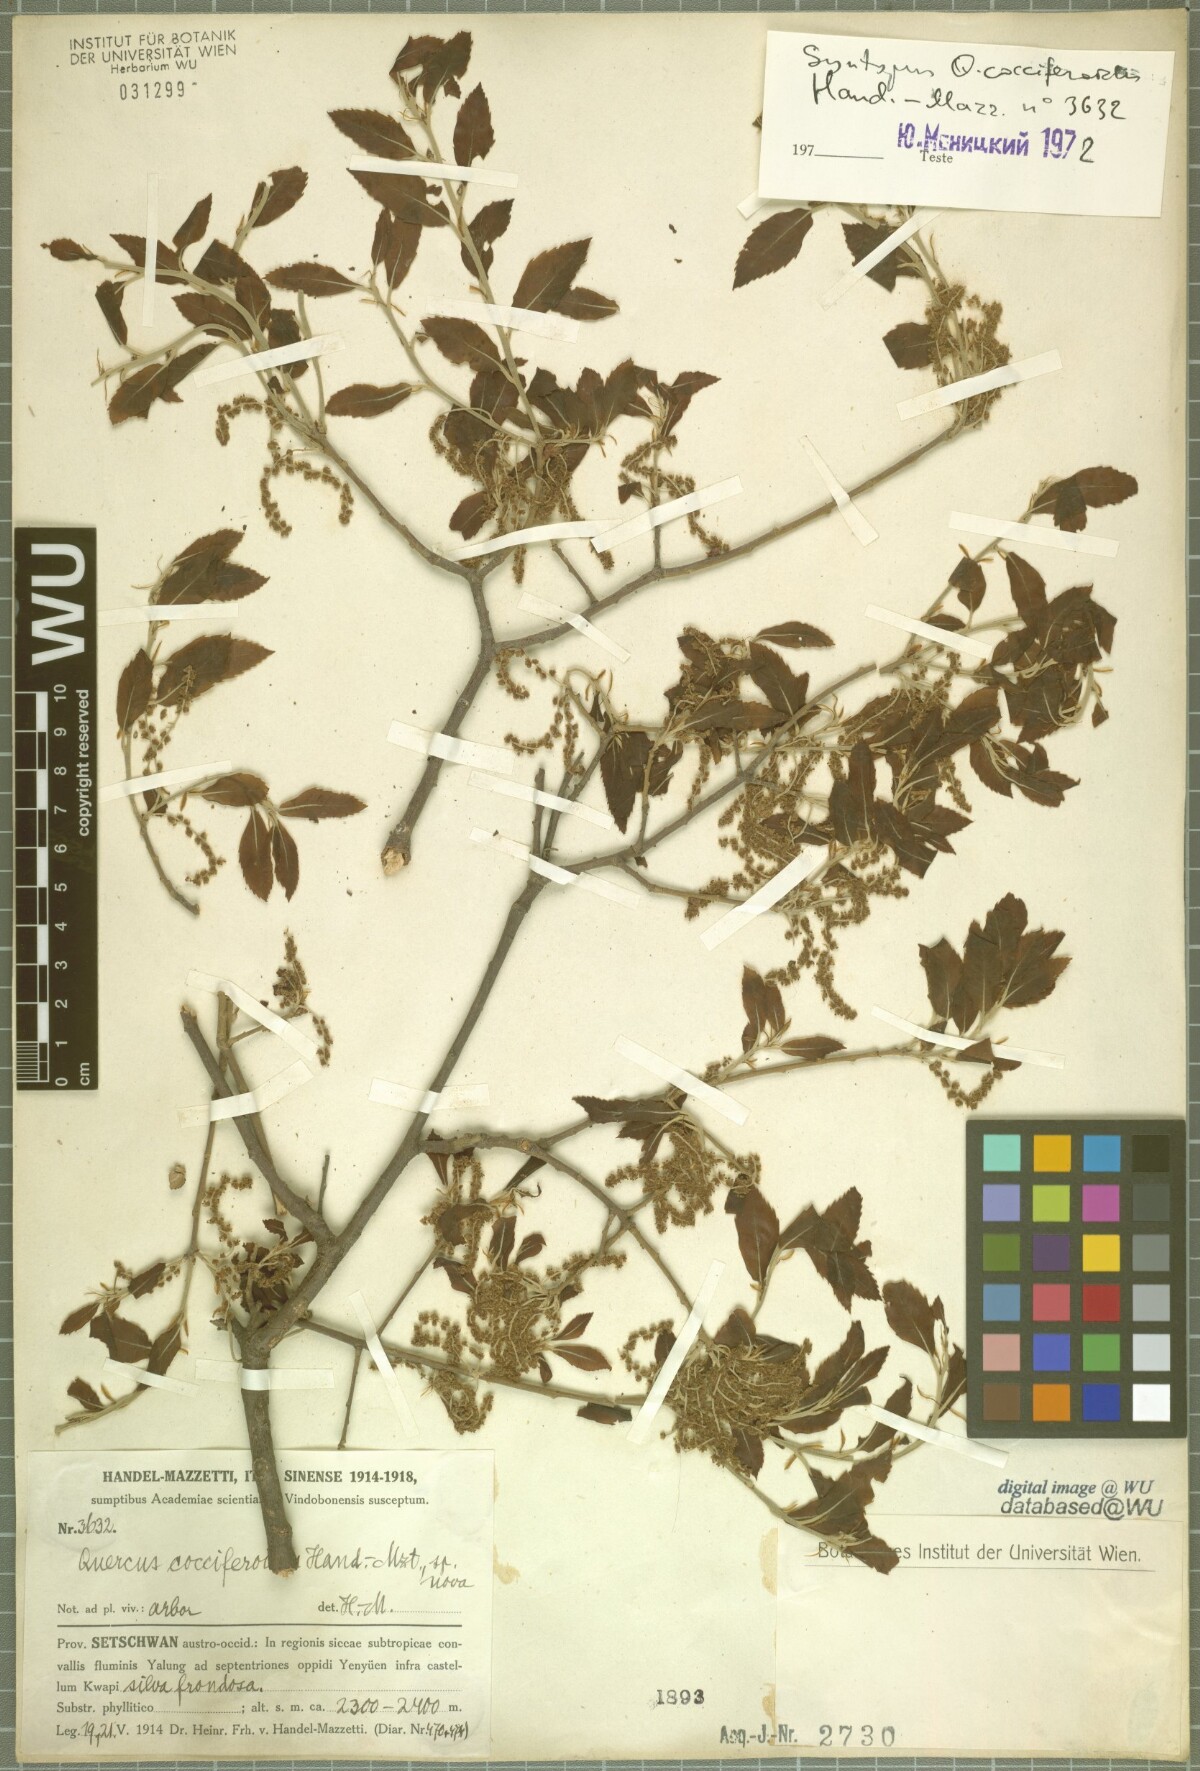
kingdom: Plantae
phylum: Tracheophyta
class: Magnoliopsida
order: Fagales
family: Fagaceae
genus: Quercus
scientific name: Quercus cocciferoides
